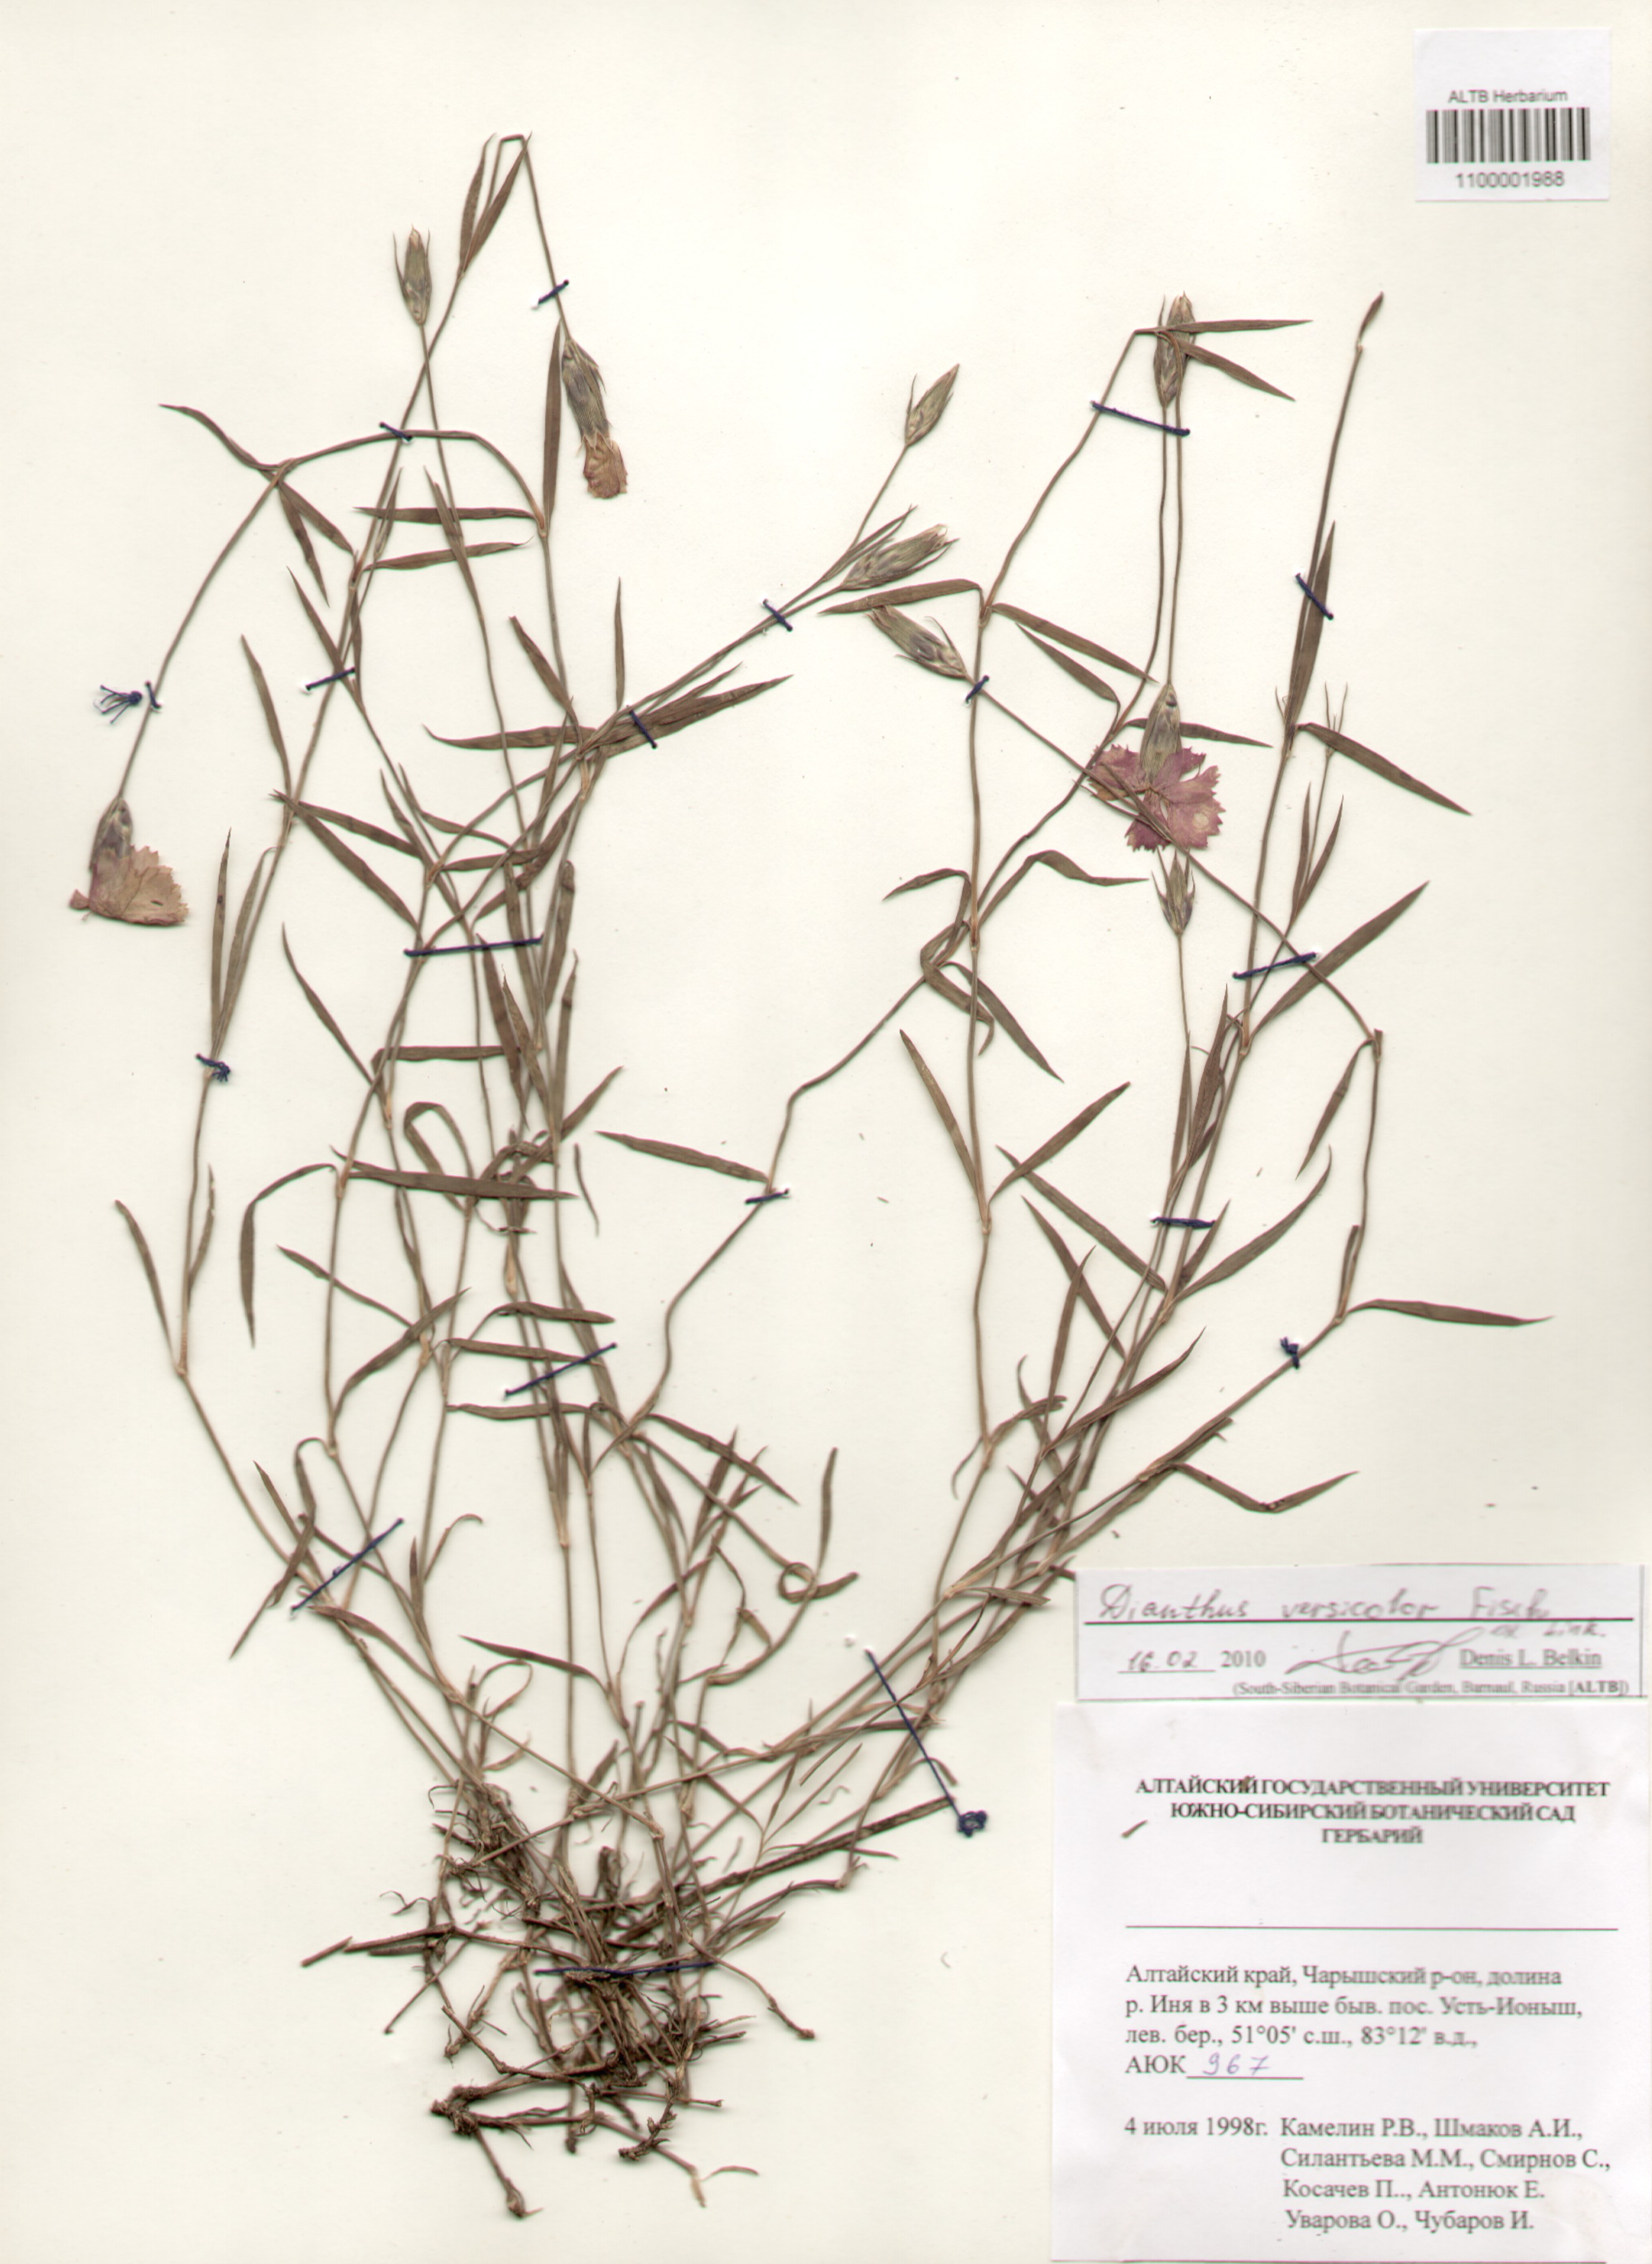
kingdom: Plantae
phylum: Tracheophyta
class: Magnoliopsida
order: Caryophyllales
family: Caryophyllaceae
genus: Dianthus
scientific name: Dianthus chinensis
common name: Rainbow pink
